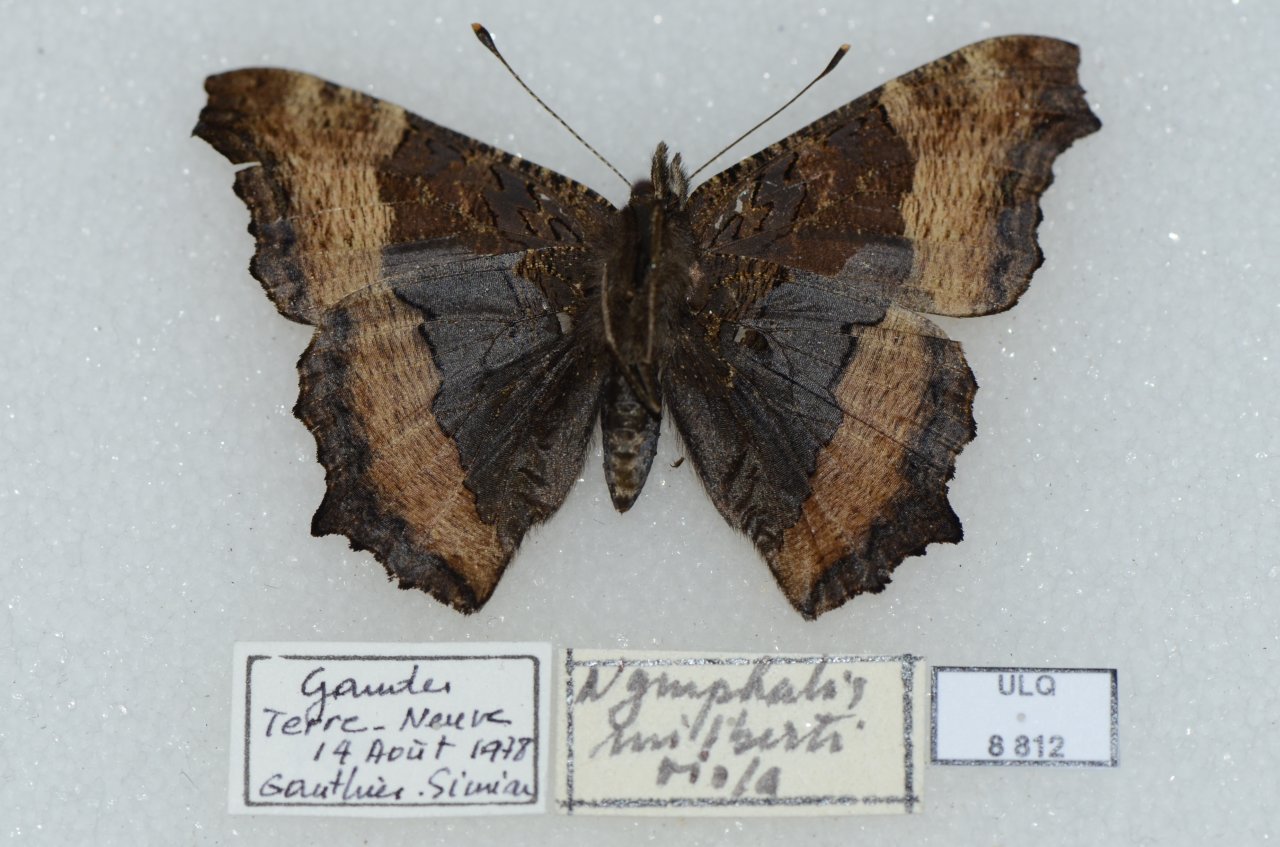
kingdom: Animalia
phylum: Arthropoda
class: Insecta
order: Lepidoptera
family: Nymphalidae
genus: Aglais
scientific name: Aglais milberti
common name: Milbert's Tortoiseshell
